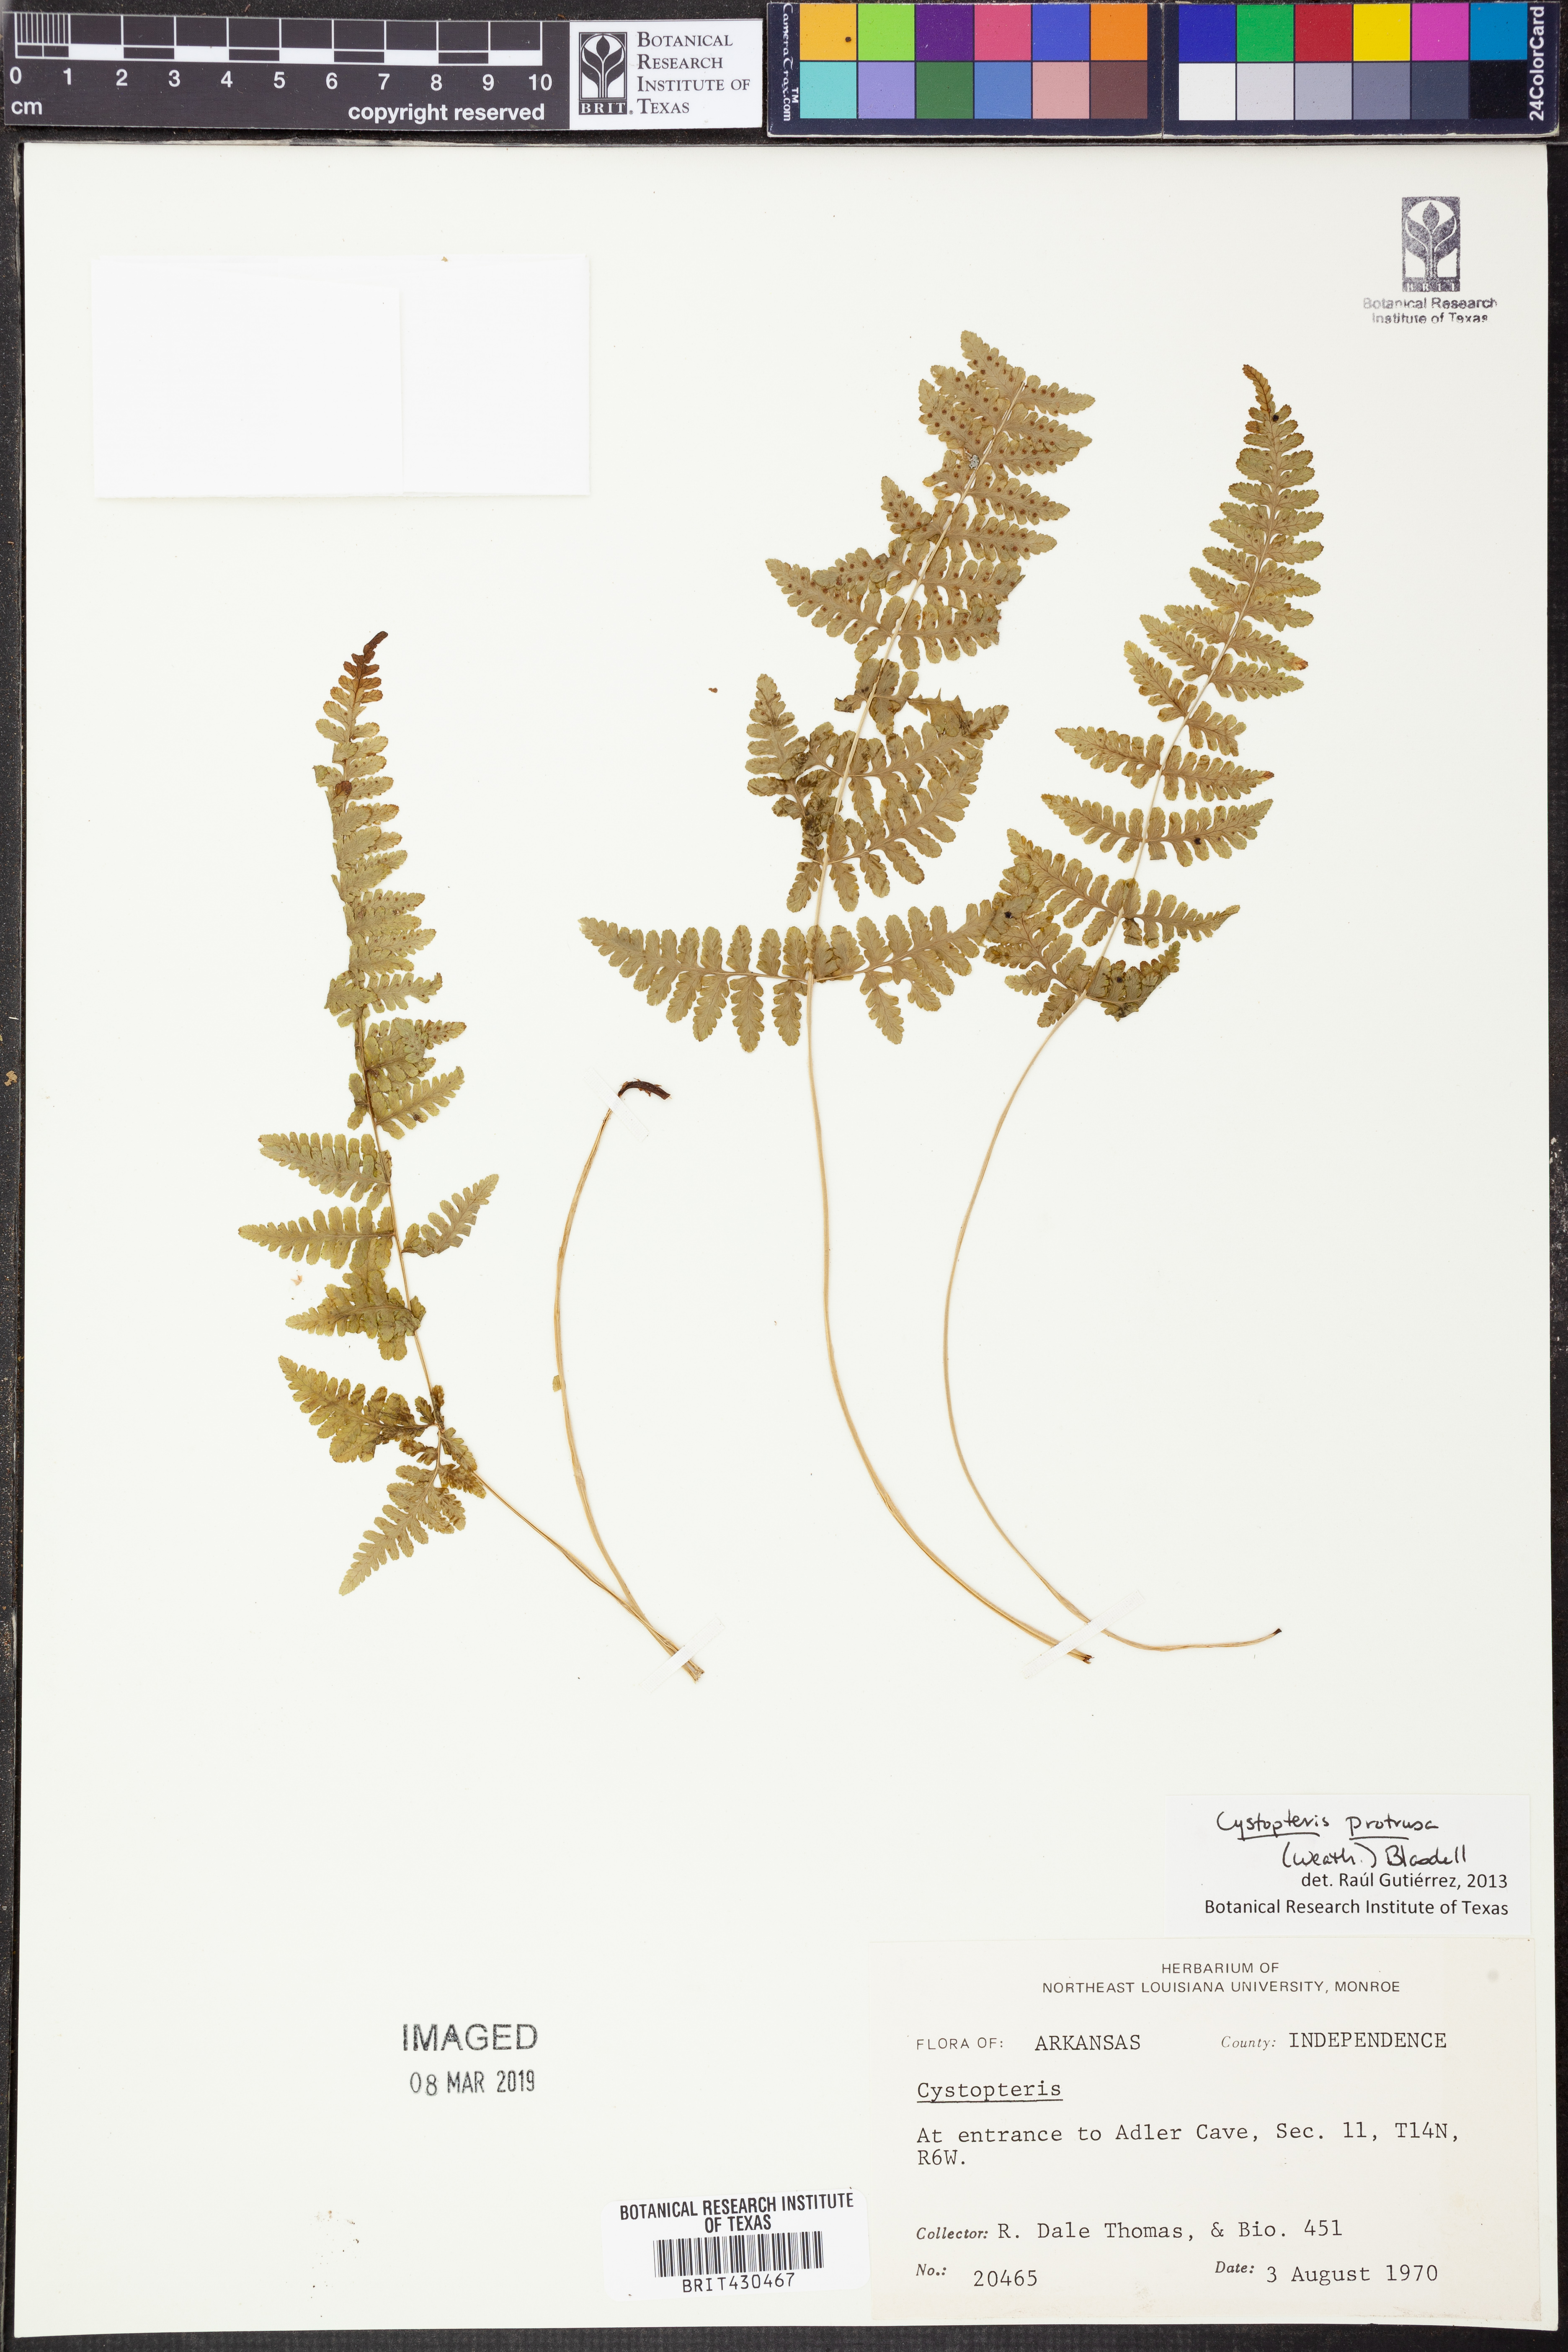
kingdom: Plantae
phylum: Tracheophyta
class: Polypodiopsida
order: Polypodiales
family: Cystopteridaceae
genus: Cystopteris
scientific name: Cystopteris protrusa
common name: Lowland brittle fern
